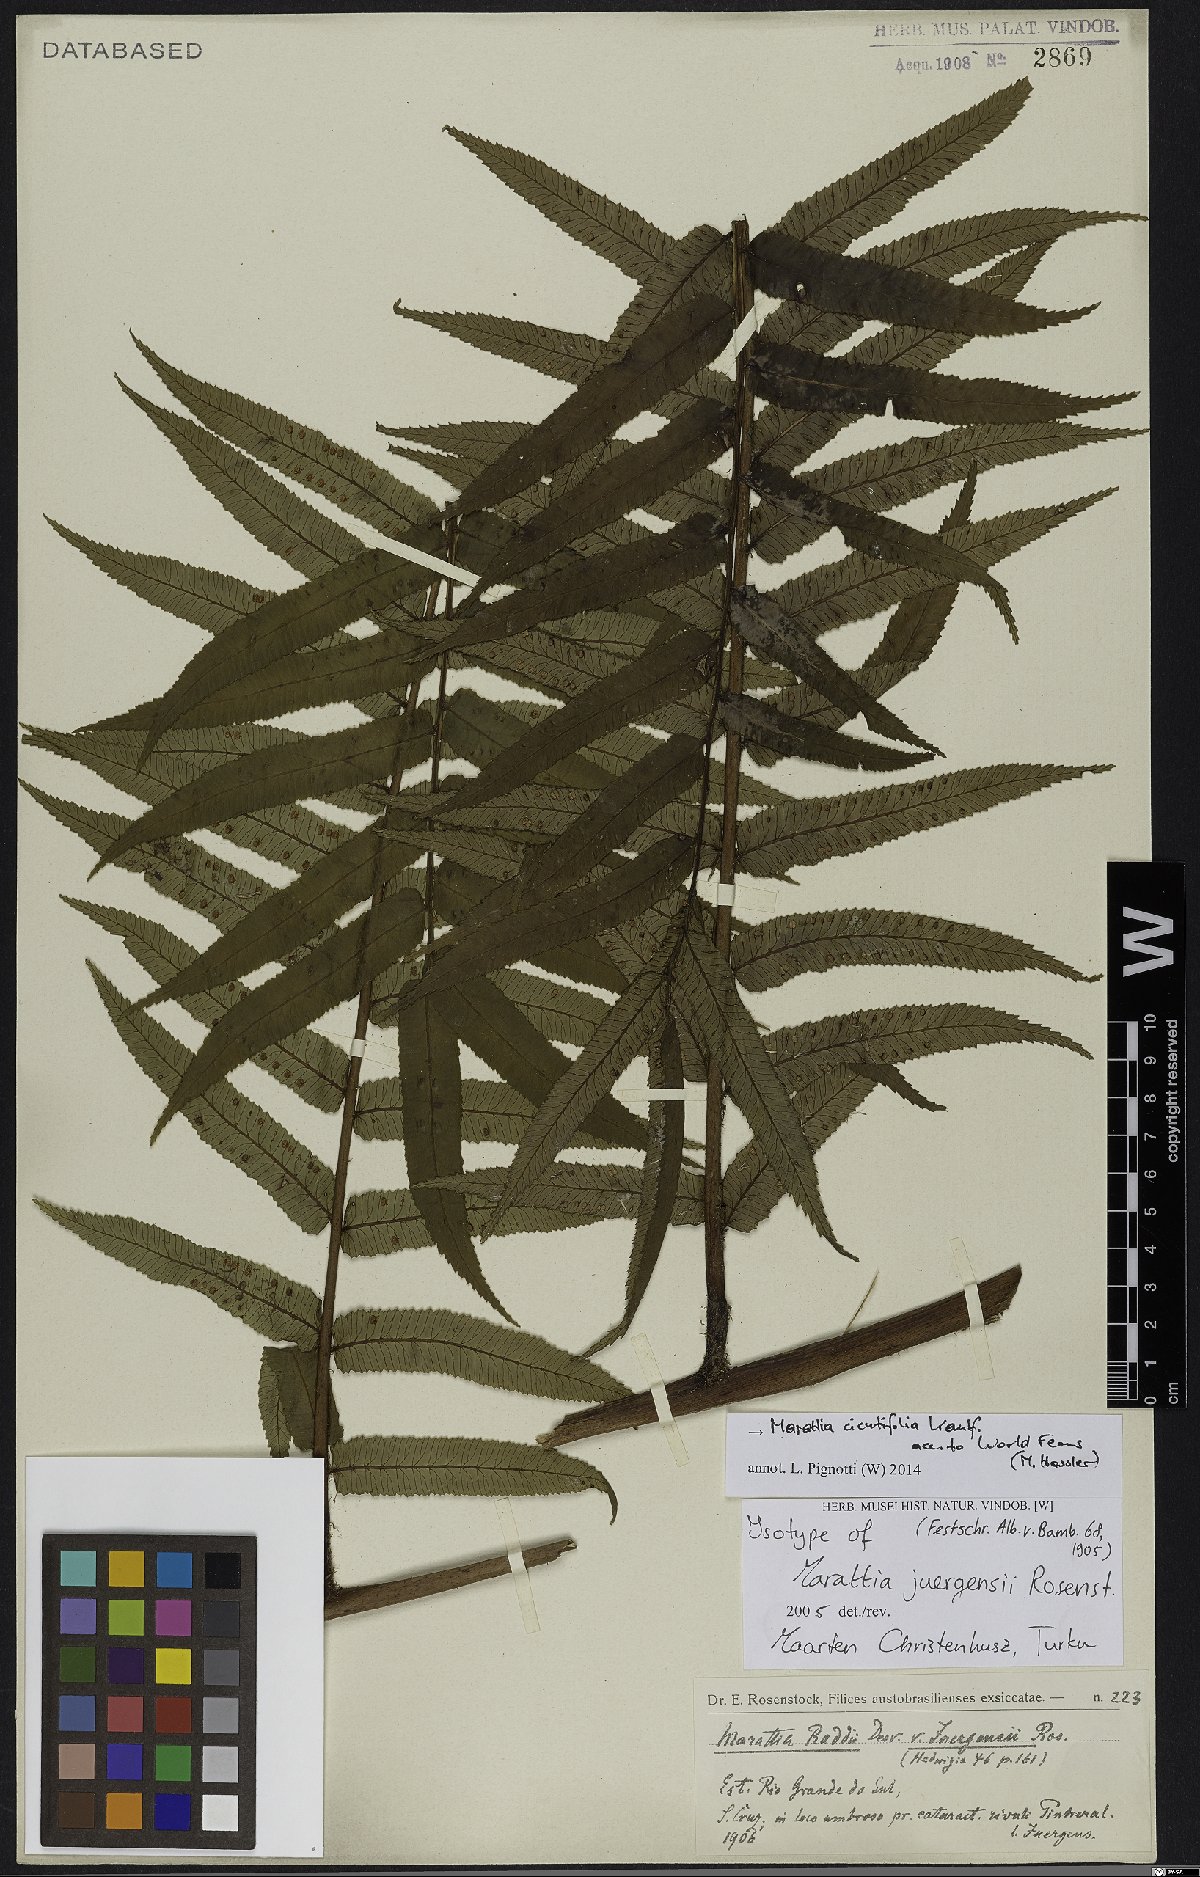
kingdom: Plantae
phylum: Tracheophyta
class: Polypodiopsida
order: Marattiales
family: Marattiaceae
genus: Eupodium
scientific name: Eupodium cicutifolium
